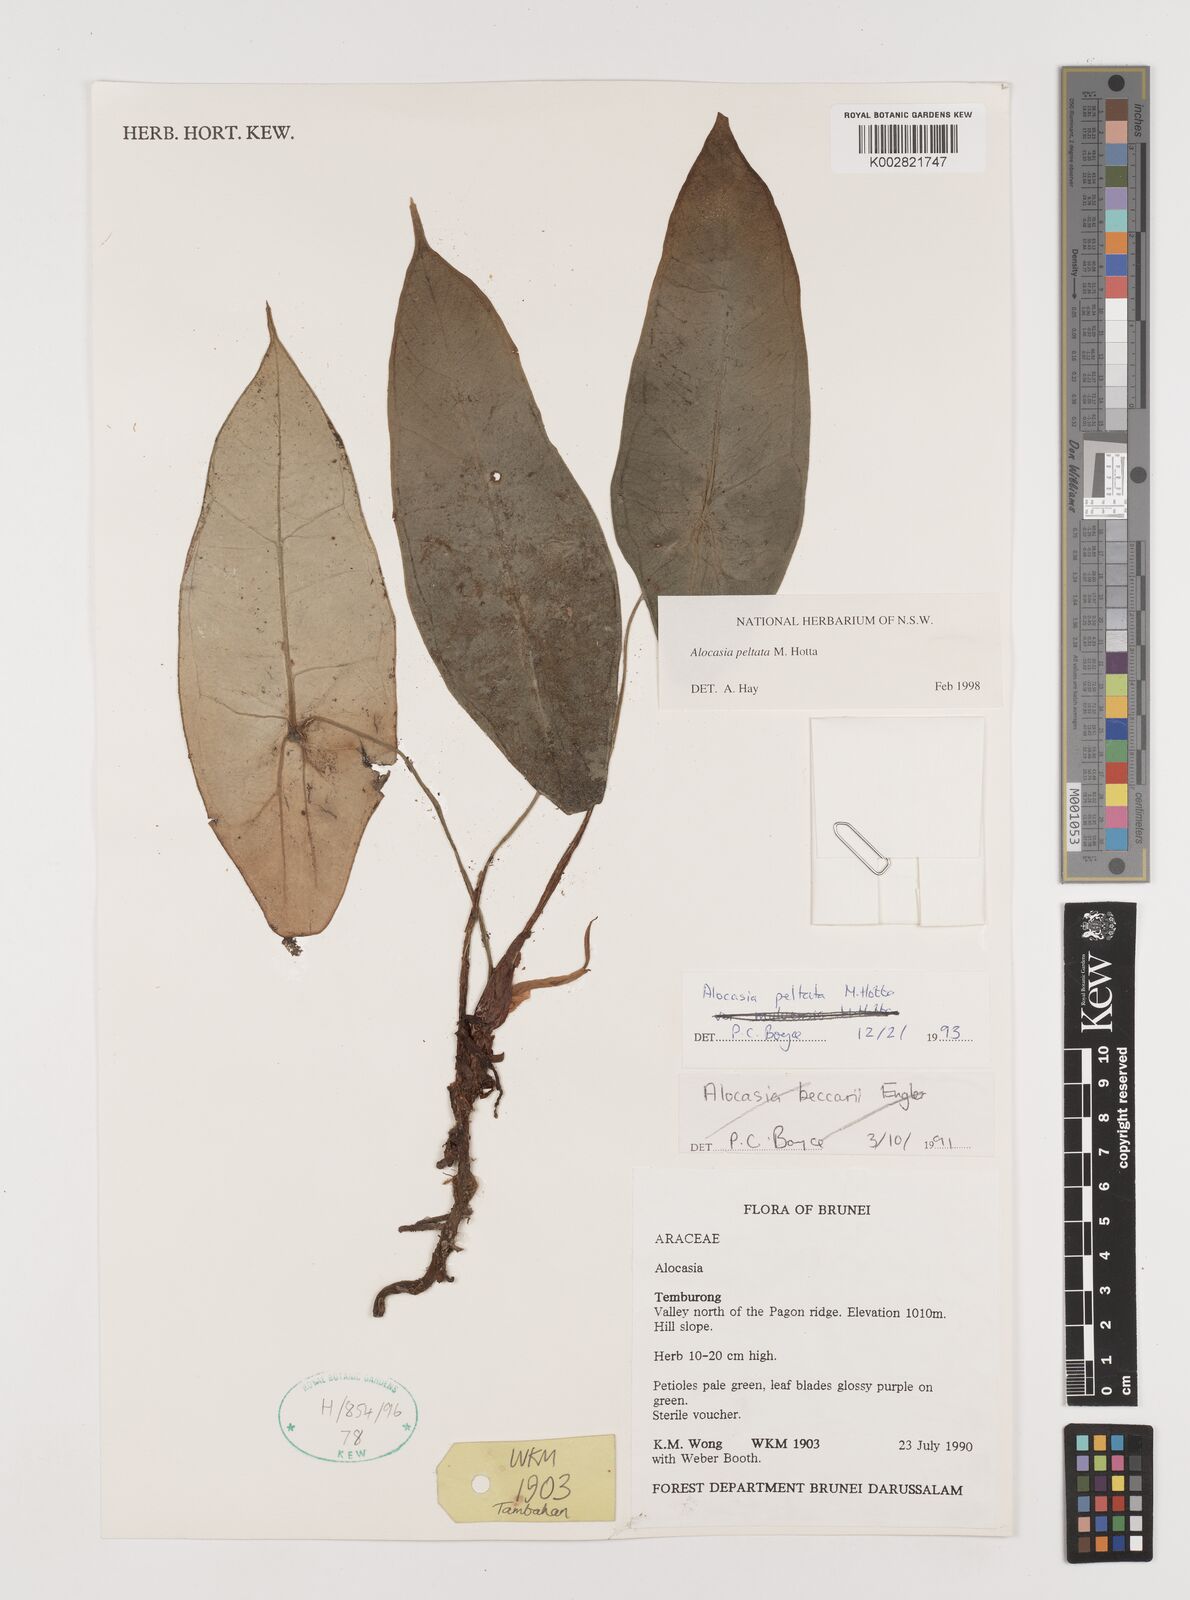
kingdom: Plantae
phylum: Tracheophyta
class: Liliopsida
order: Alismatales
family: Araceae
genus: Alocasia
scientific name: Alocasia peltata
